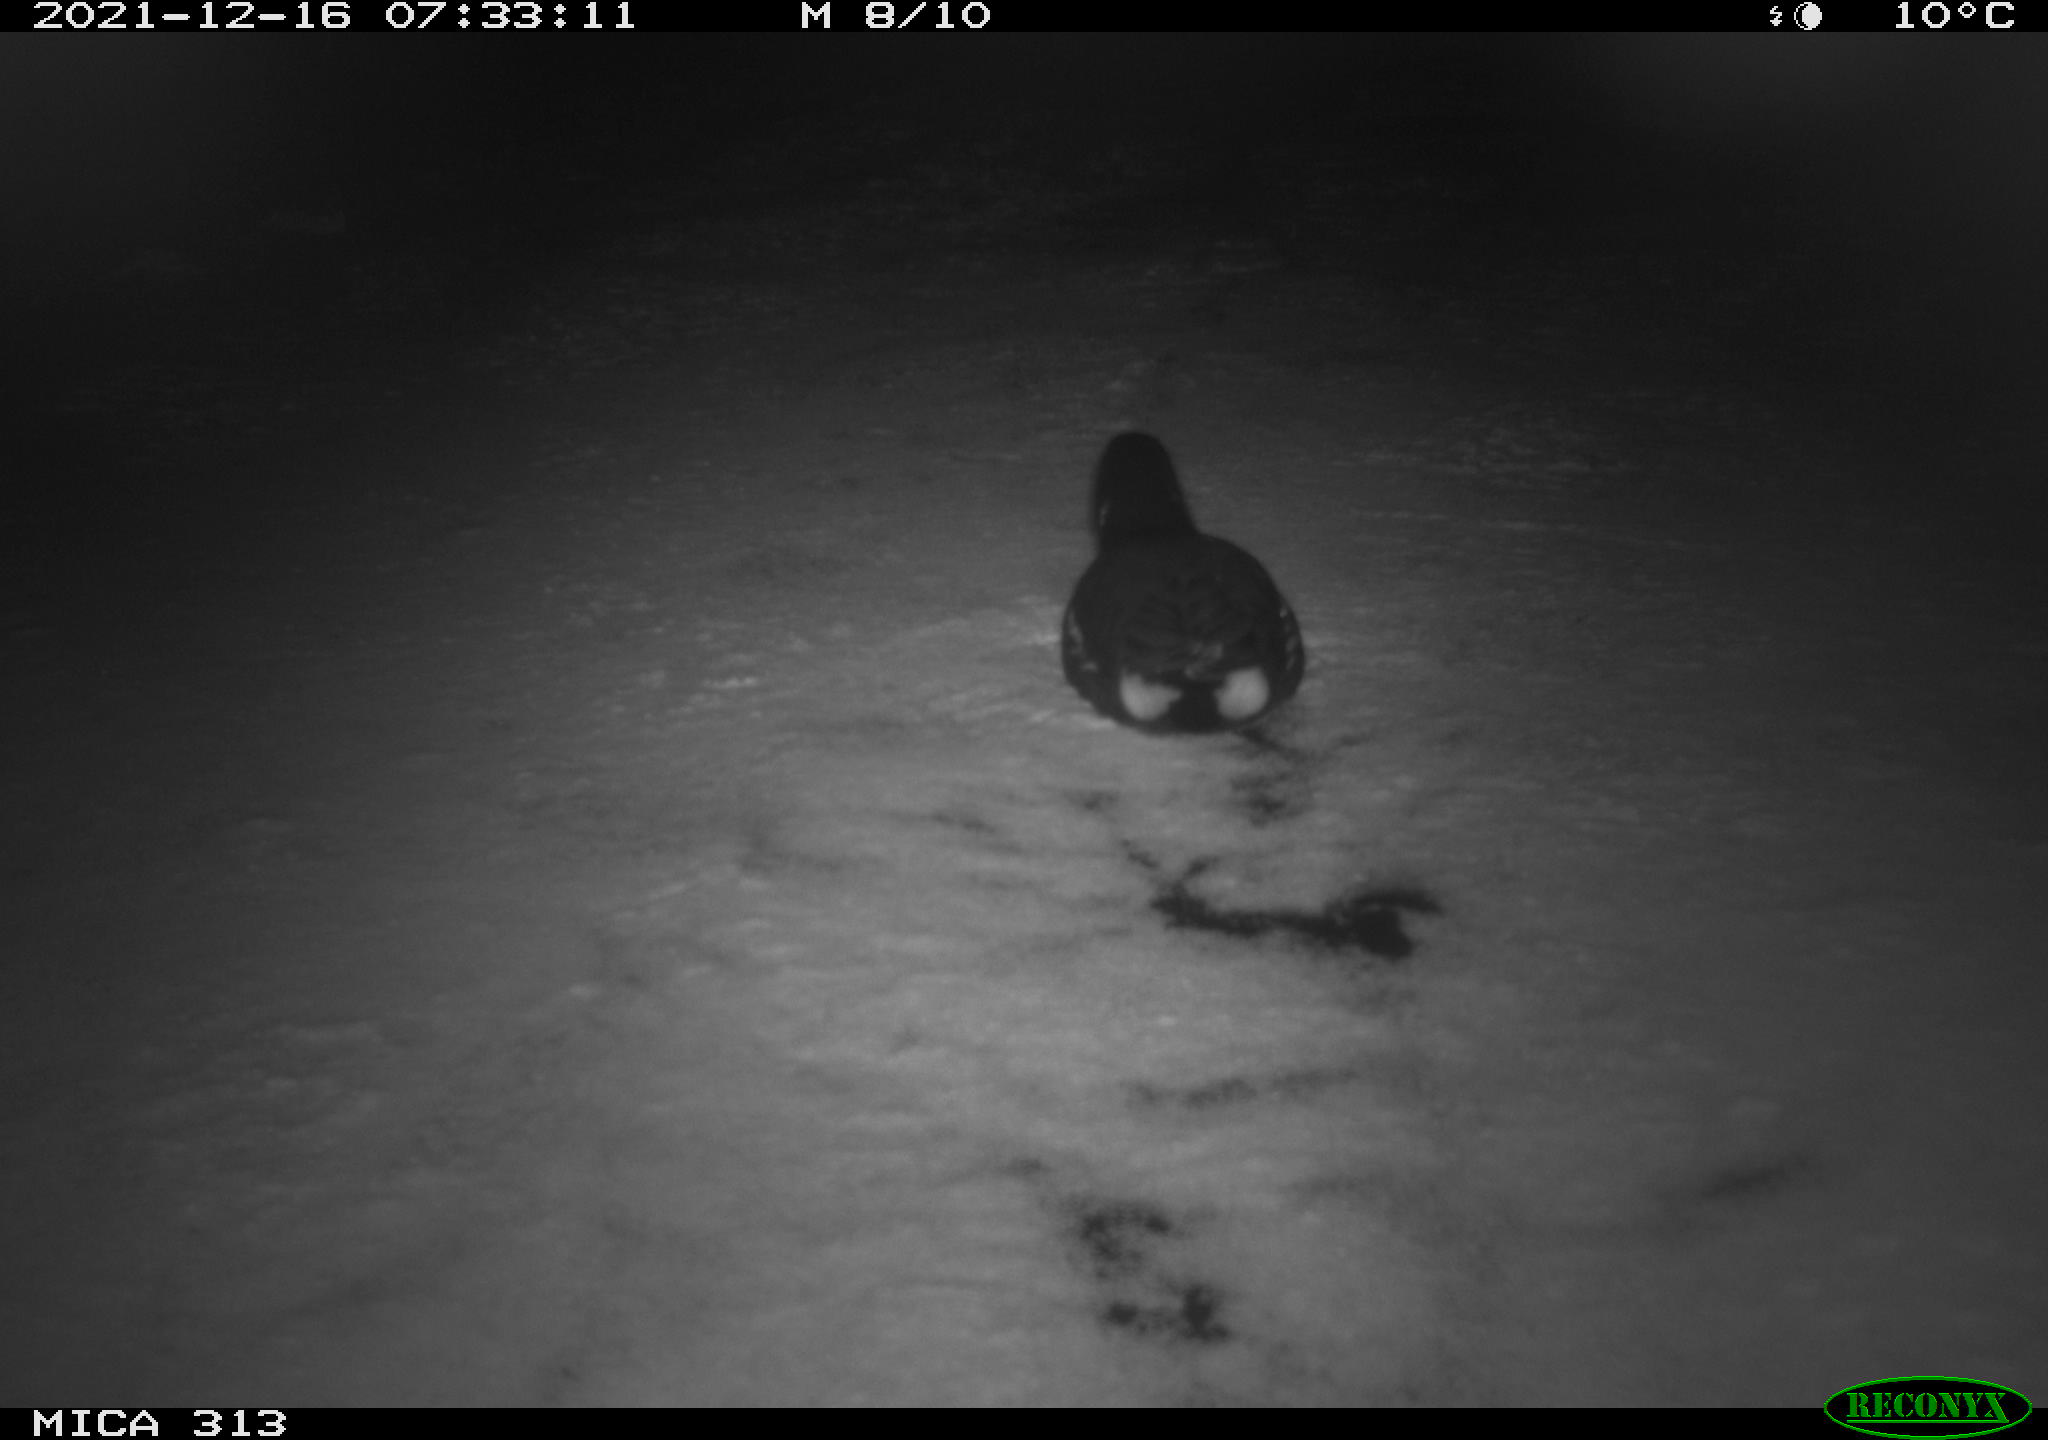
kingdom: Animalia
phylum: Chordata
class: Aves
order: Gruiformes
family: Rallidae
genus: Fulica
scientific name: Fulica atra
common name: Eurasian coot
